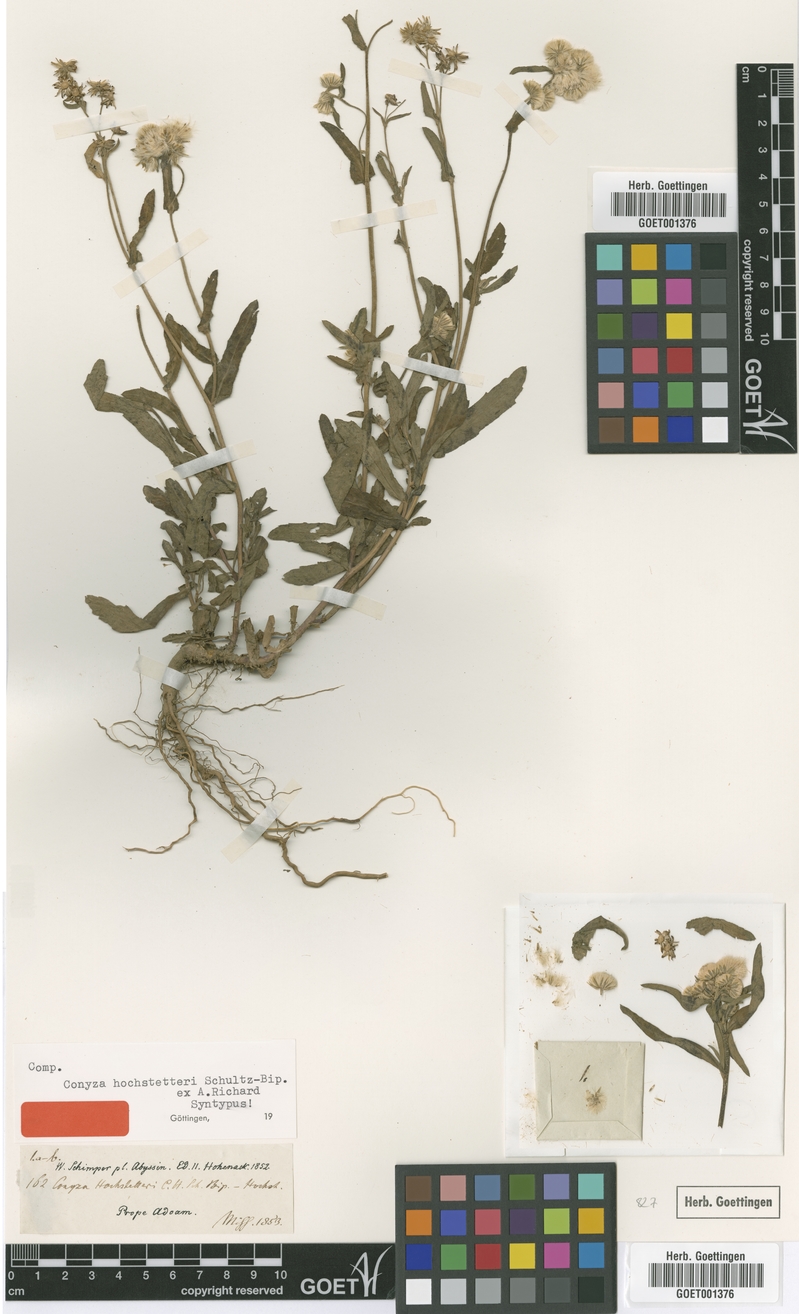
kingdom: Plantae
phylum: Tracheophyta
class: Magnoliopsida
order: Asterales
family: Asteraceae
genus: Eschenbachia
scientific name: Eschenbachia gouanii
